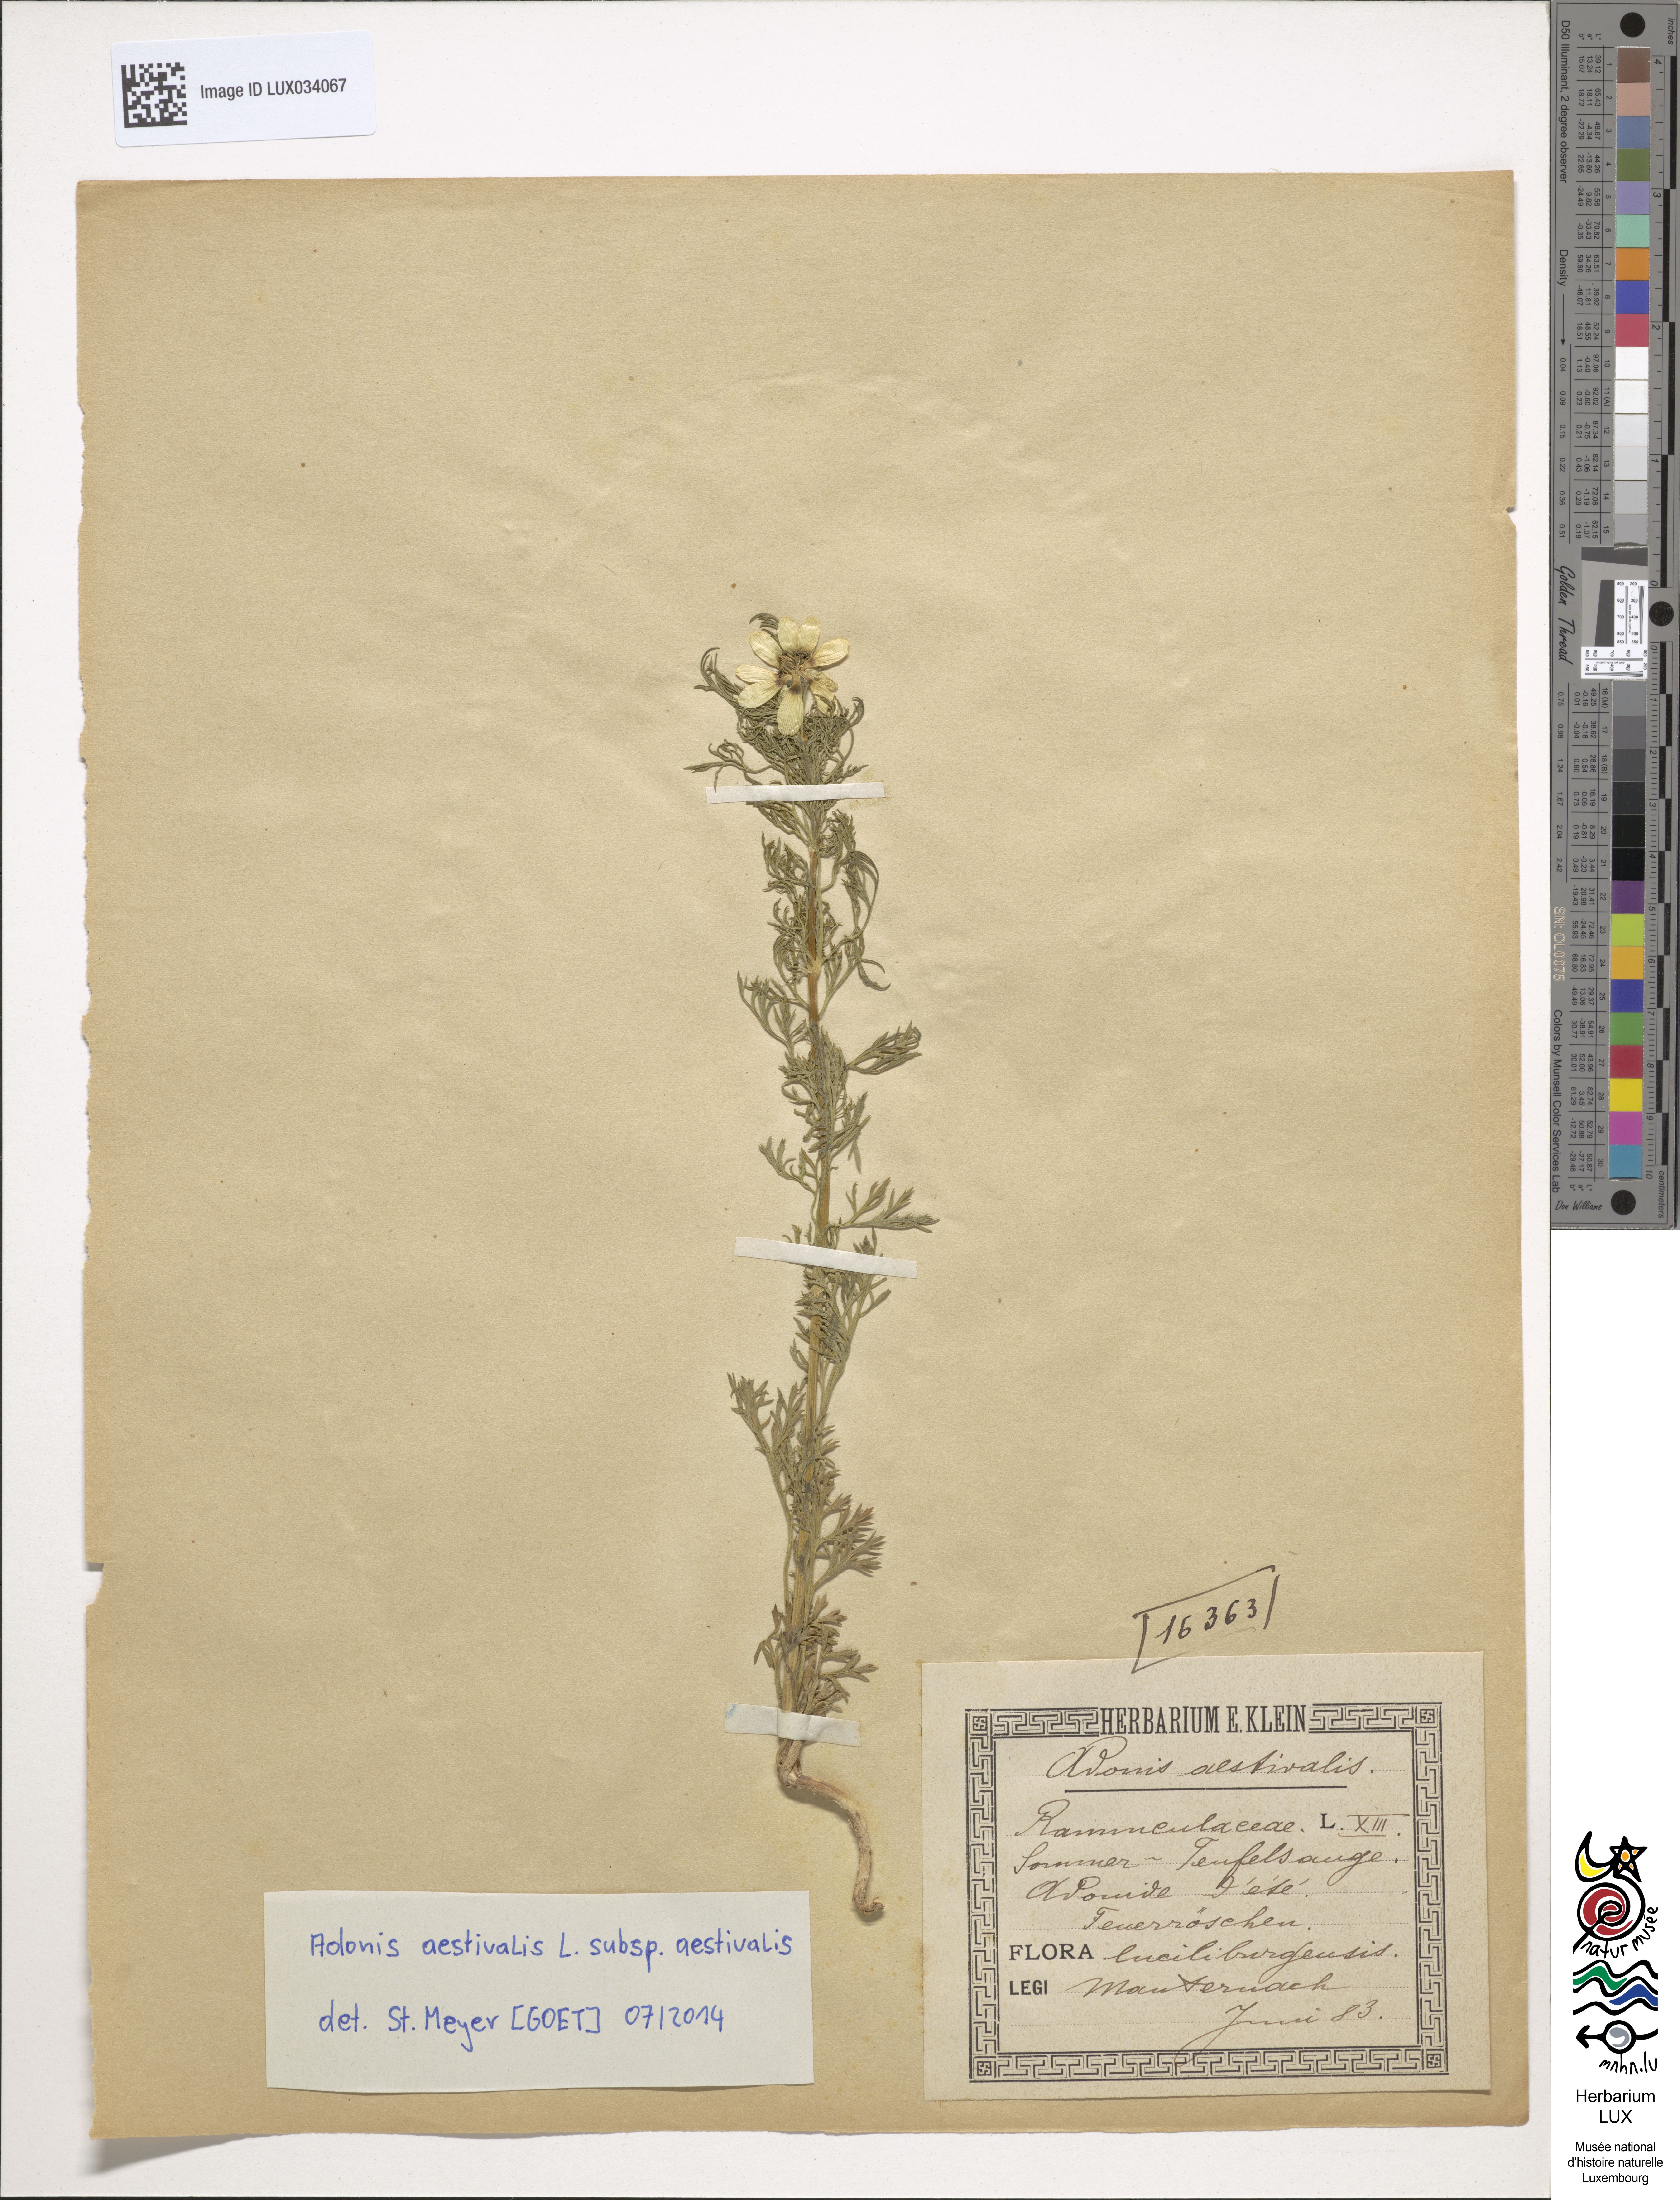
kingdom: Plantae
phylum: Tracheophyta
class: Magnoliopsida
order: Ranunculales
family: Ranunculaceae
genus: Adonis
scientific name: Adonis aestivalis
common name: Summer pheasant's-eye
